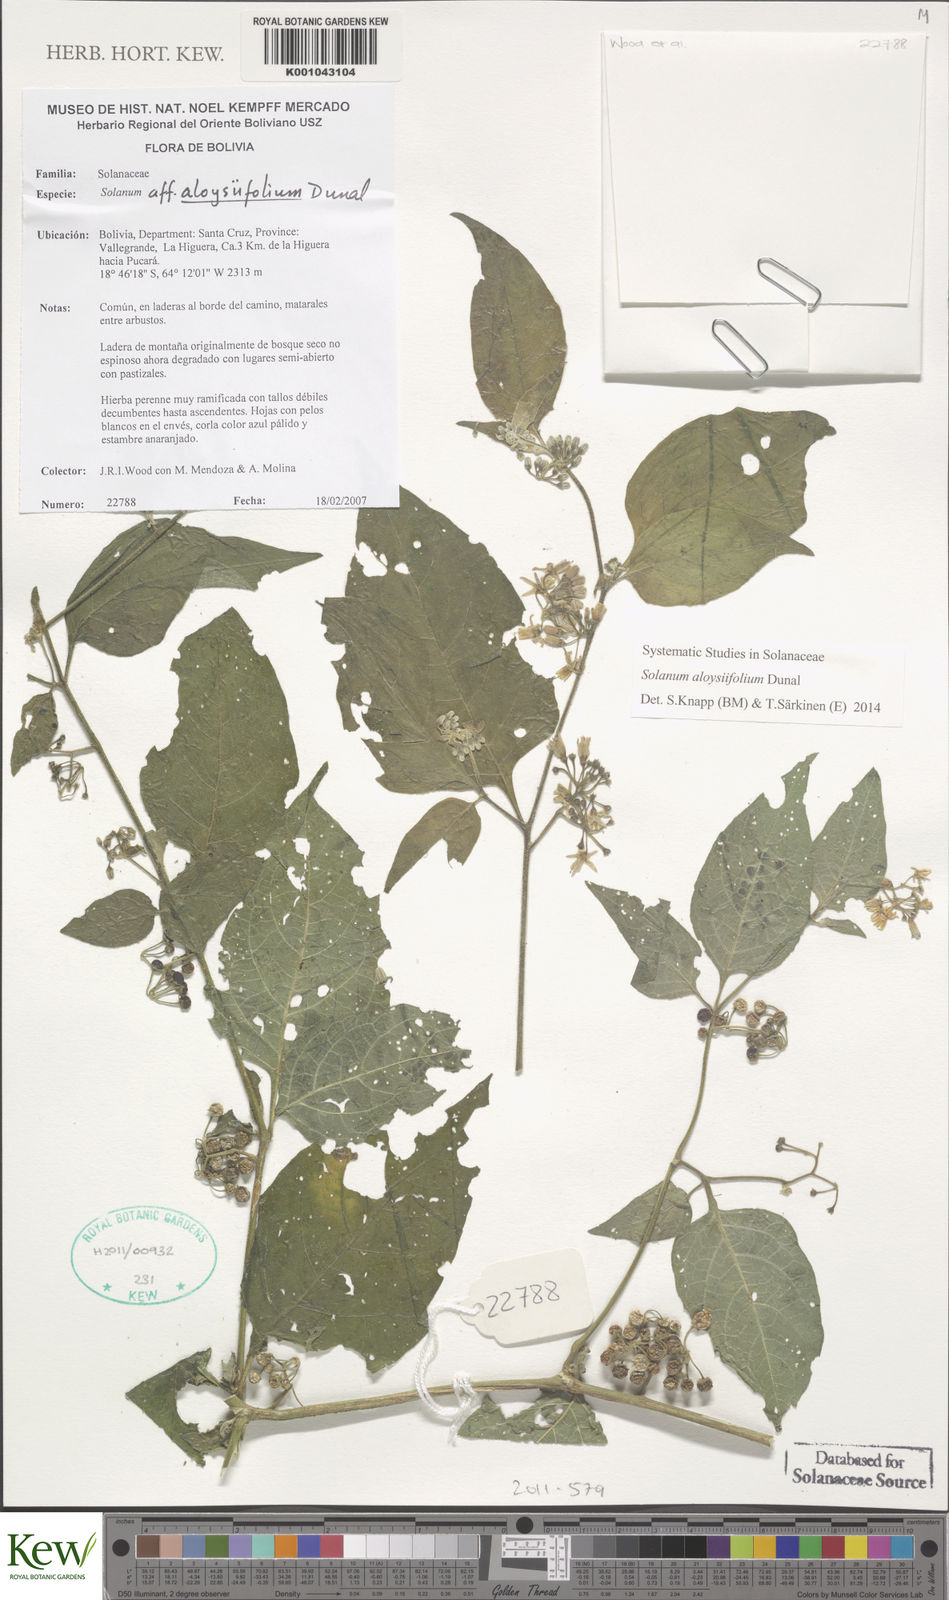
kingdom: Plantae
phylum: Tracheophyta
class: Magnoliopsida
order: Solanales
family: Solanaceae
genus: Solanum
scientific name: Solanum aloysiifolium
